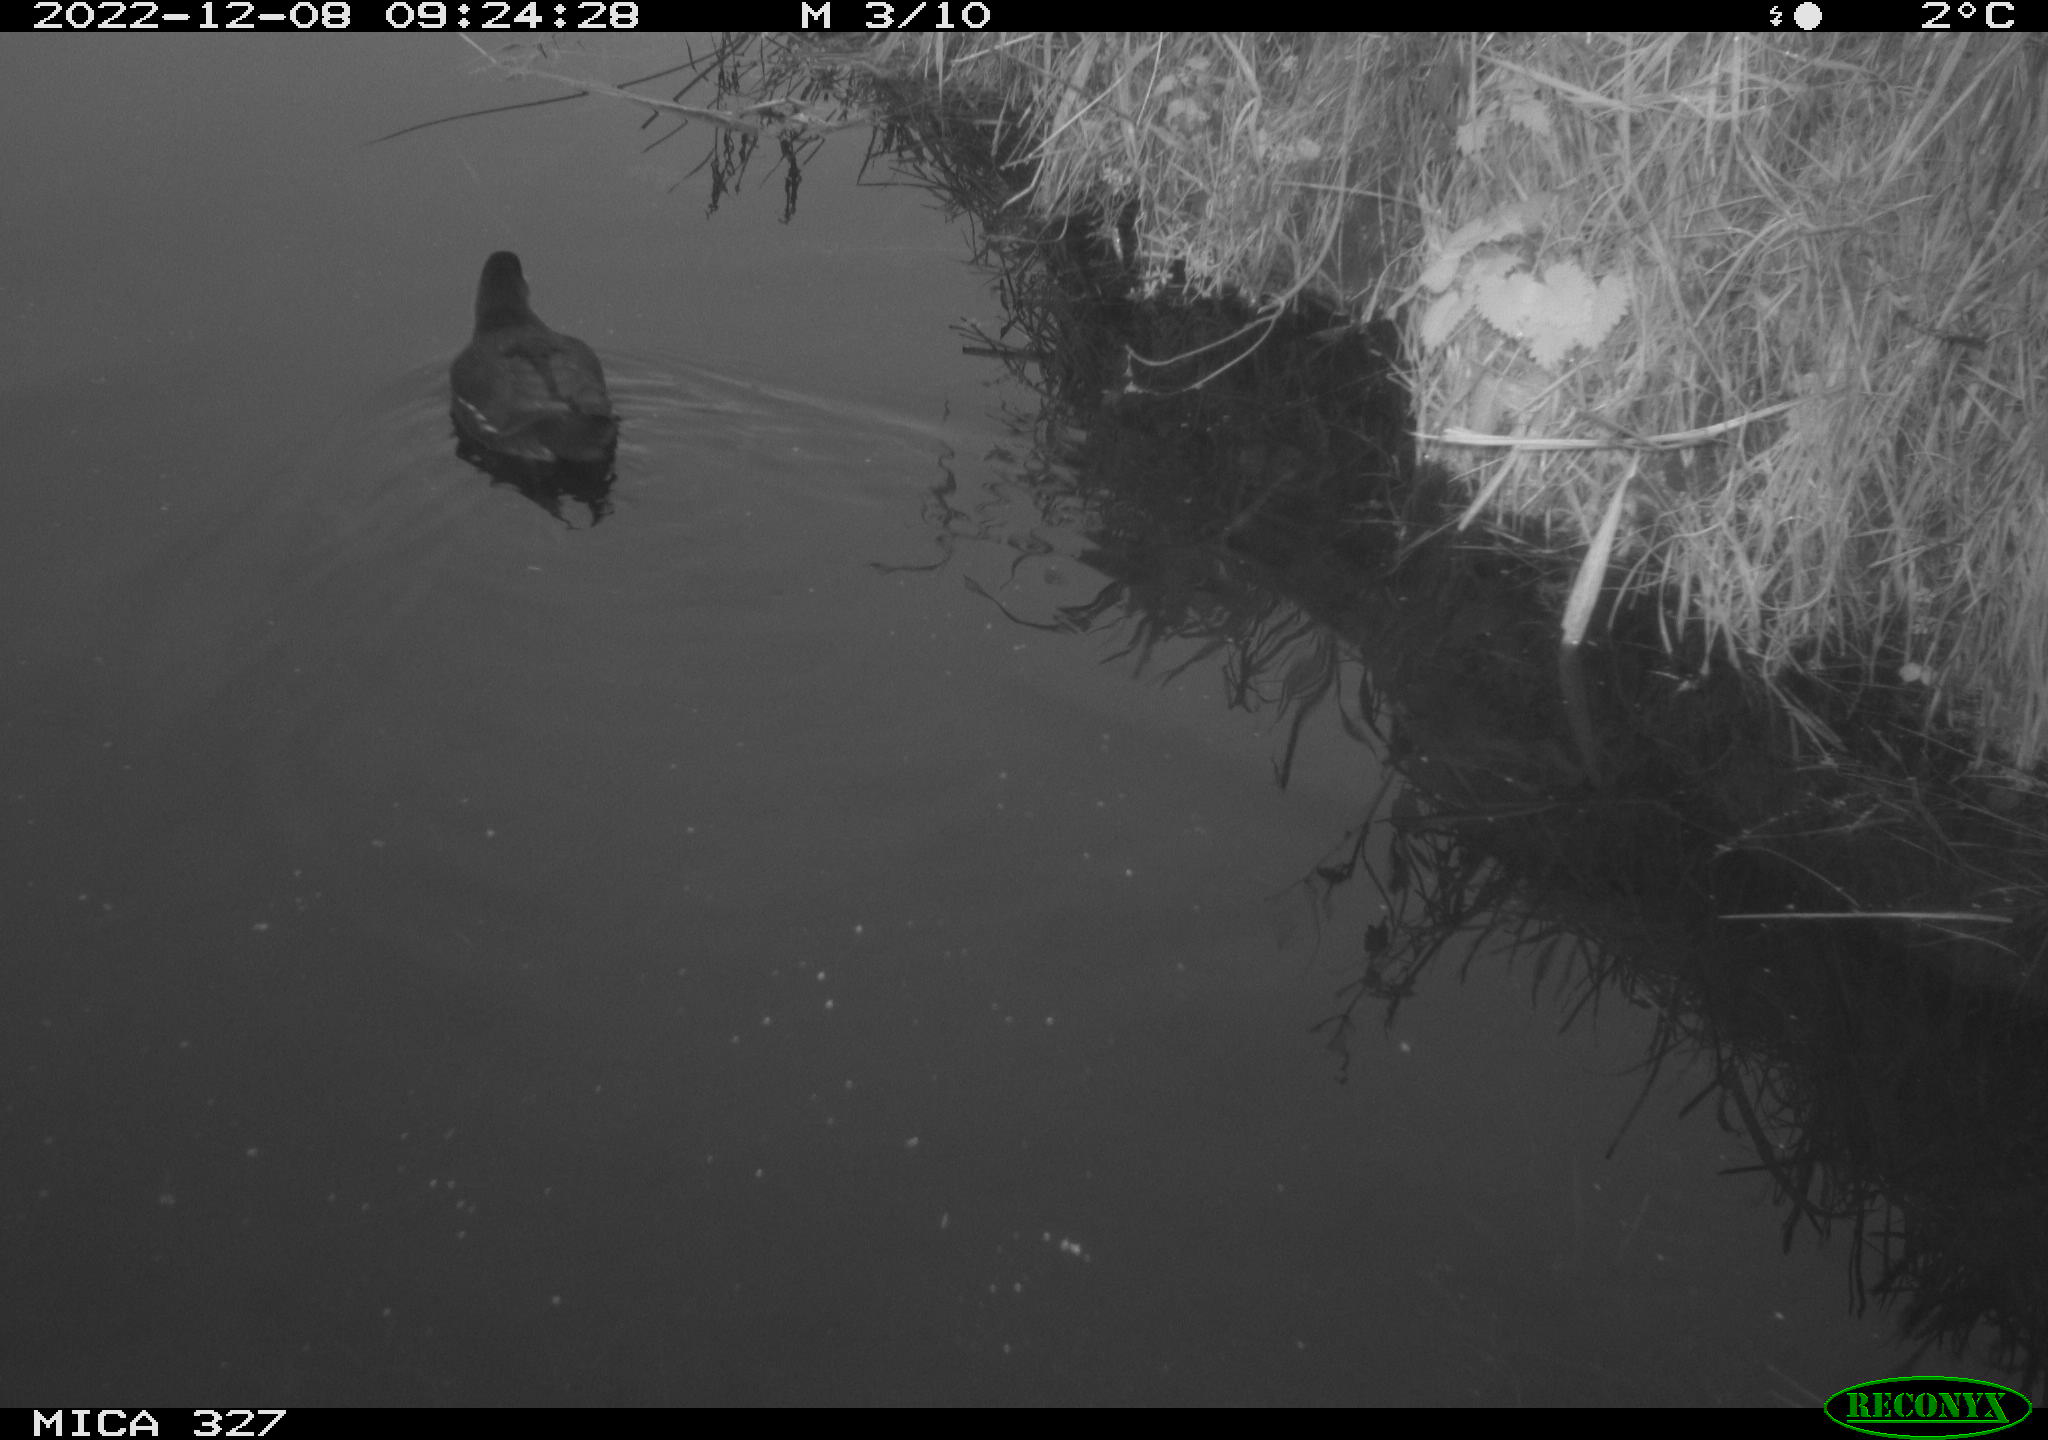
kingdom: Animalia
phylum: Chordata
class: Aves
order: Gruiformes
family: Rallidae
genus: Gallinula
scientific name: Gallinula chloropus
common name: Common moorhen
